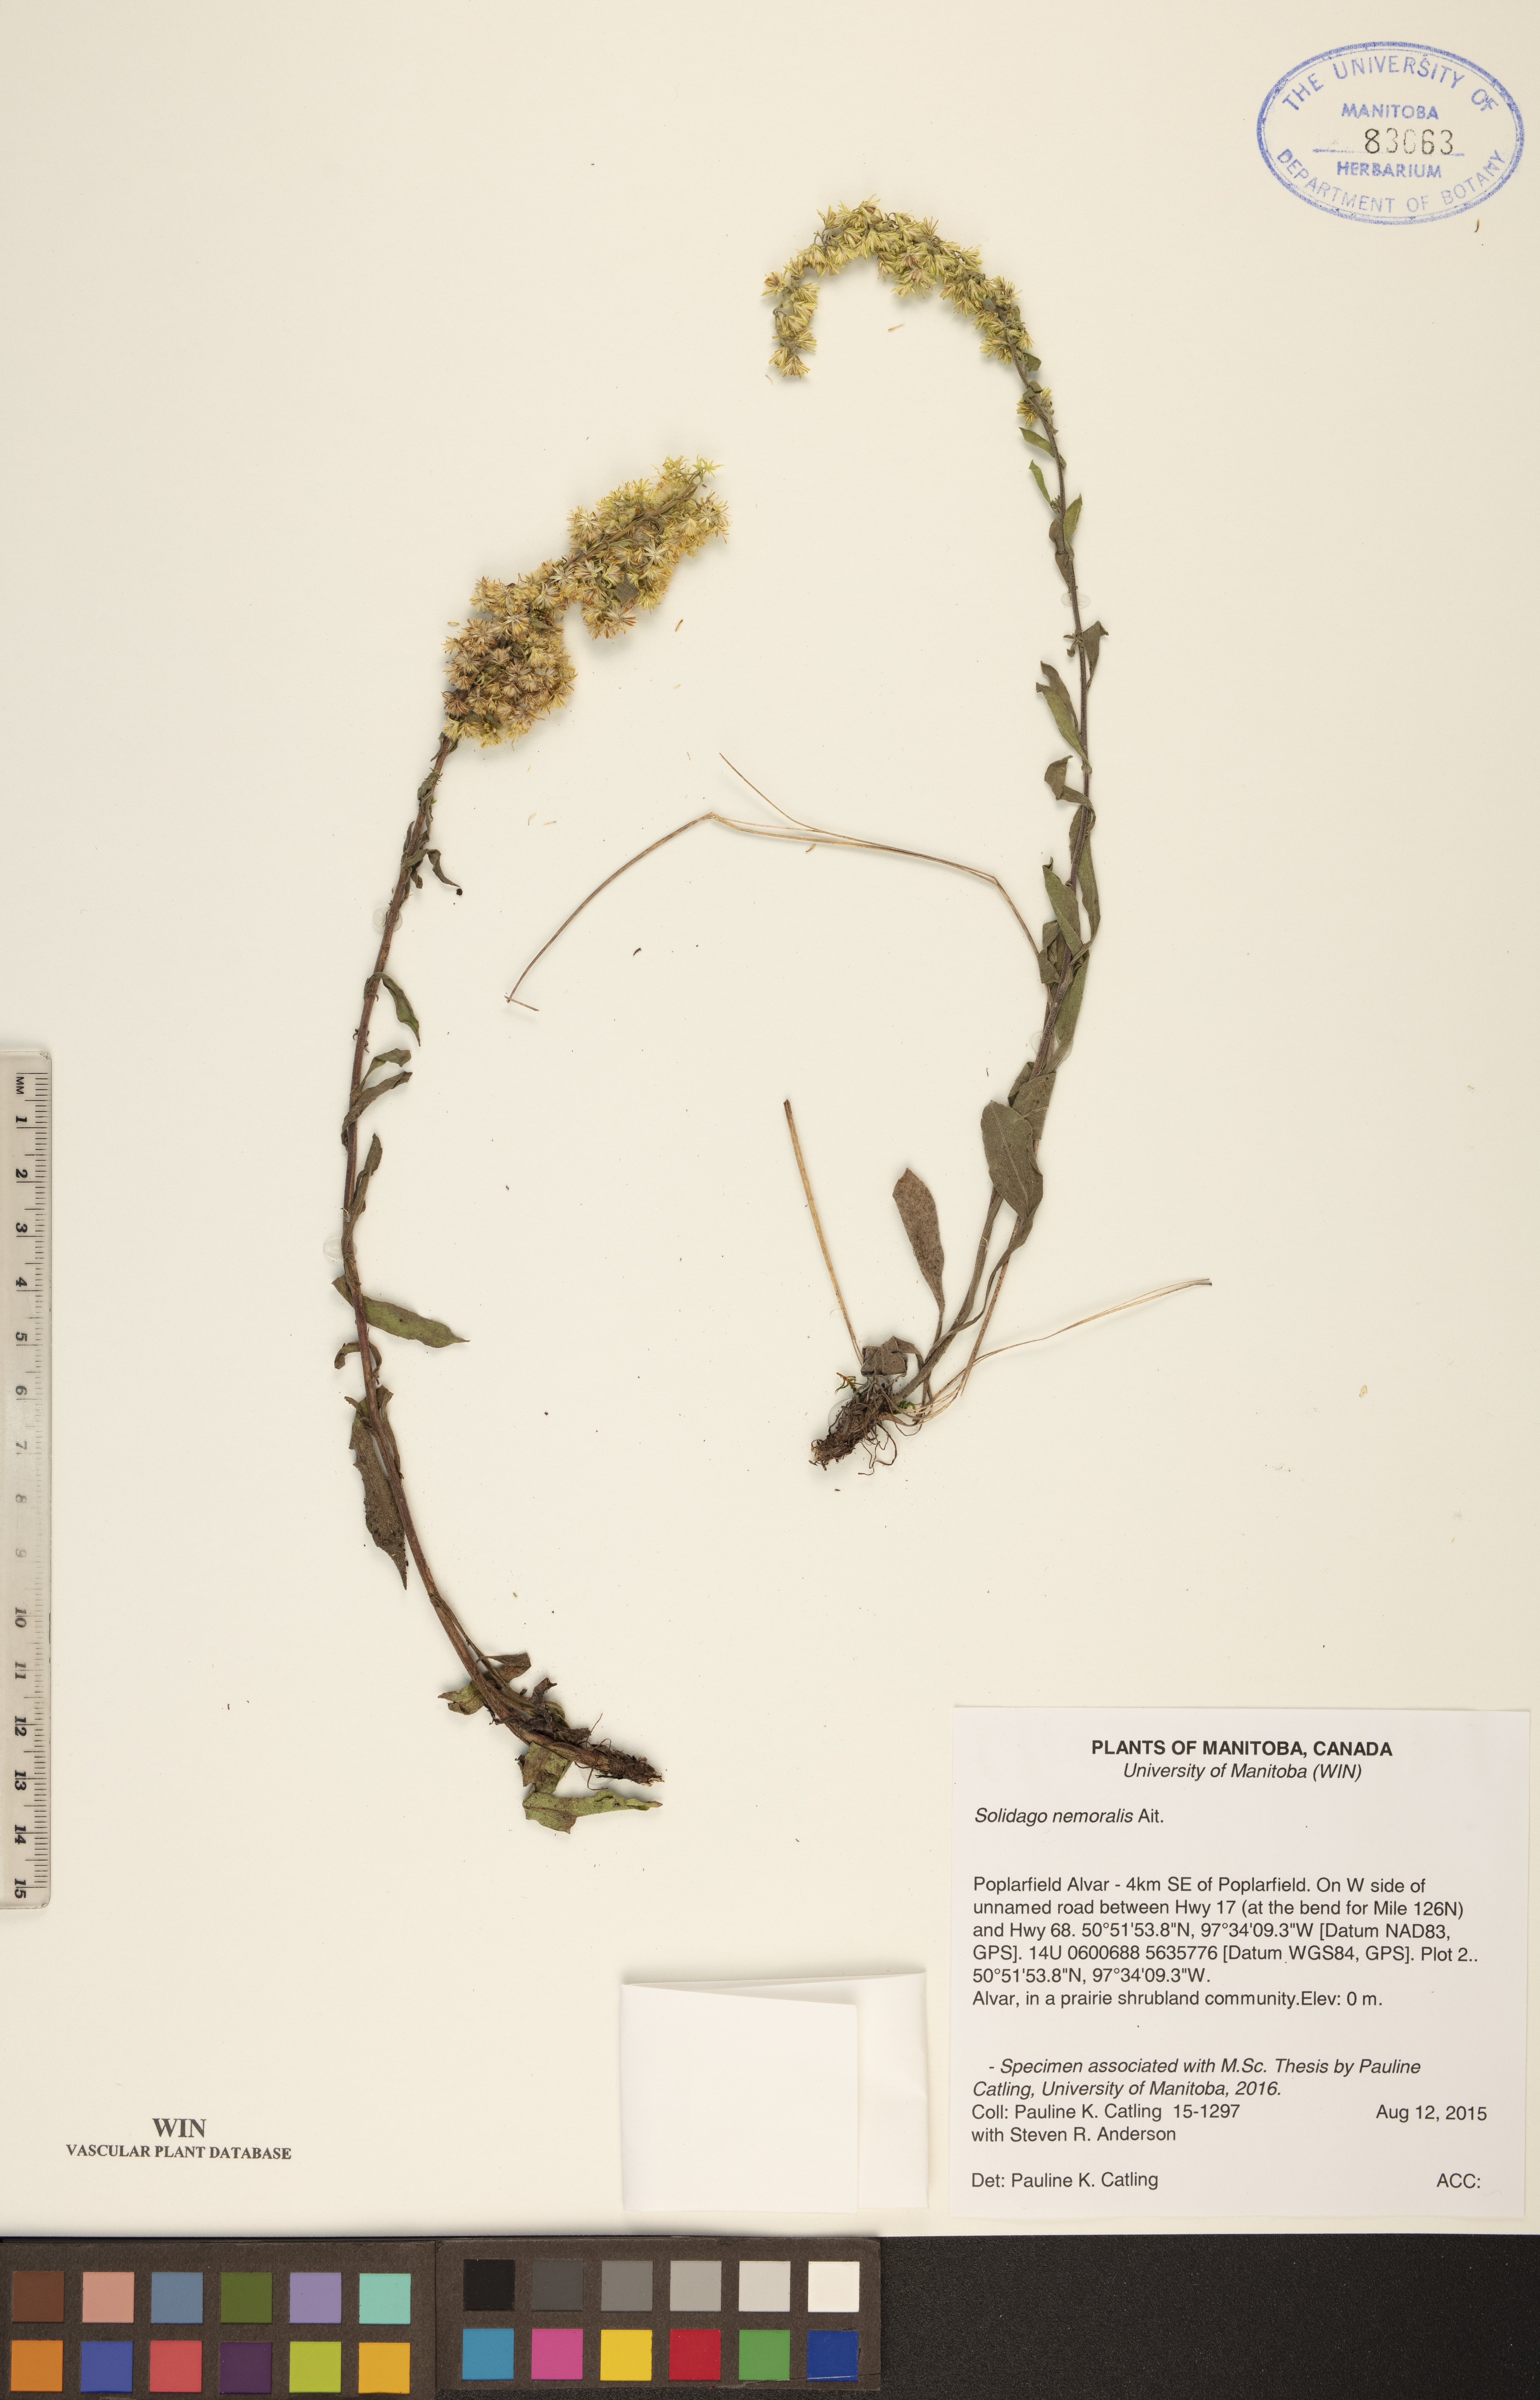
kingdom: Plantae
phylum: Tracheophyta
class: Magnoliopsida
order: Asterales
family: Asteraceae
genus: Solidago
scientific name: Solidago nemoralis
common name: Grey goldenrod
